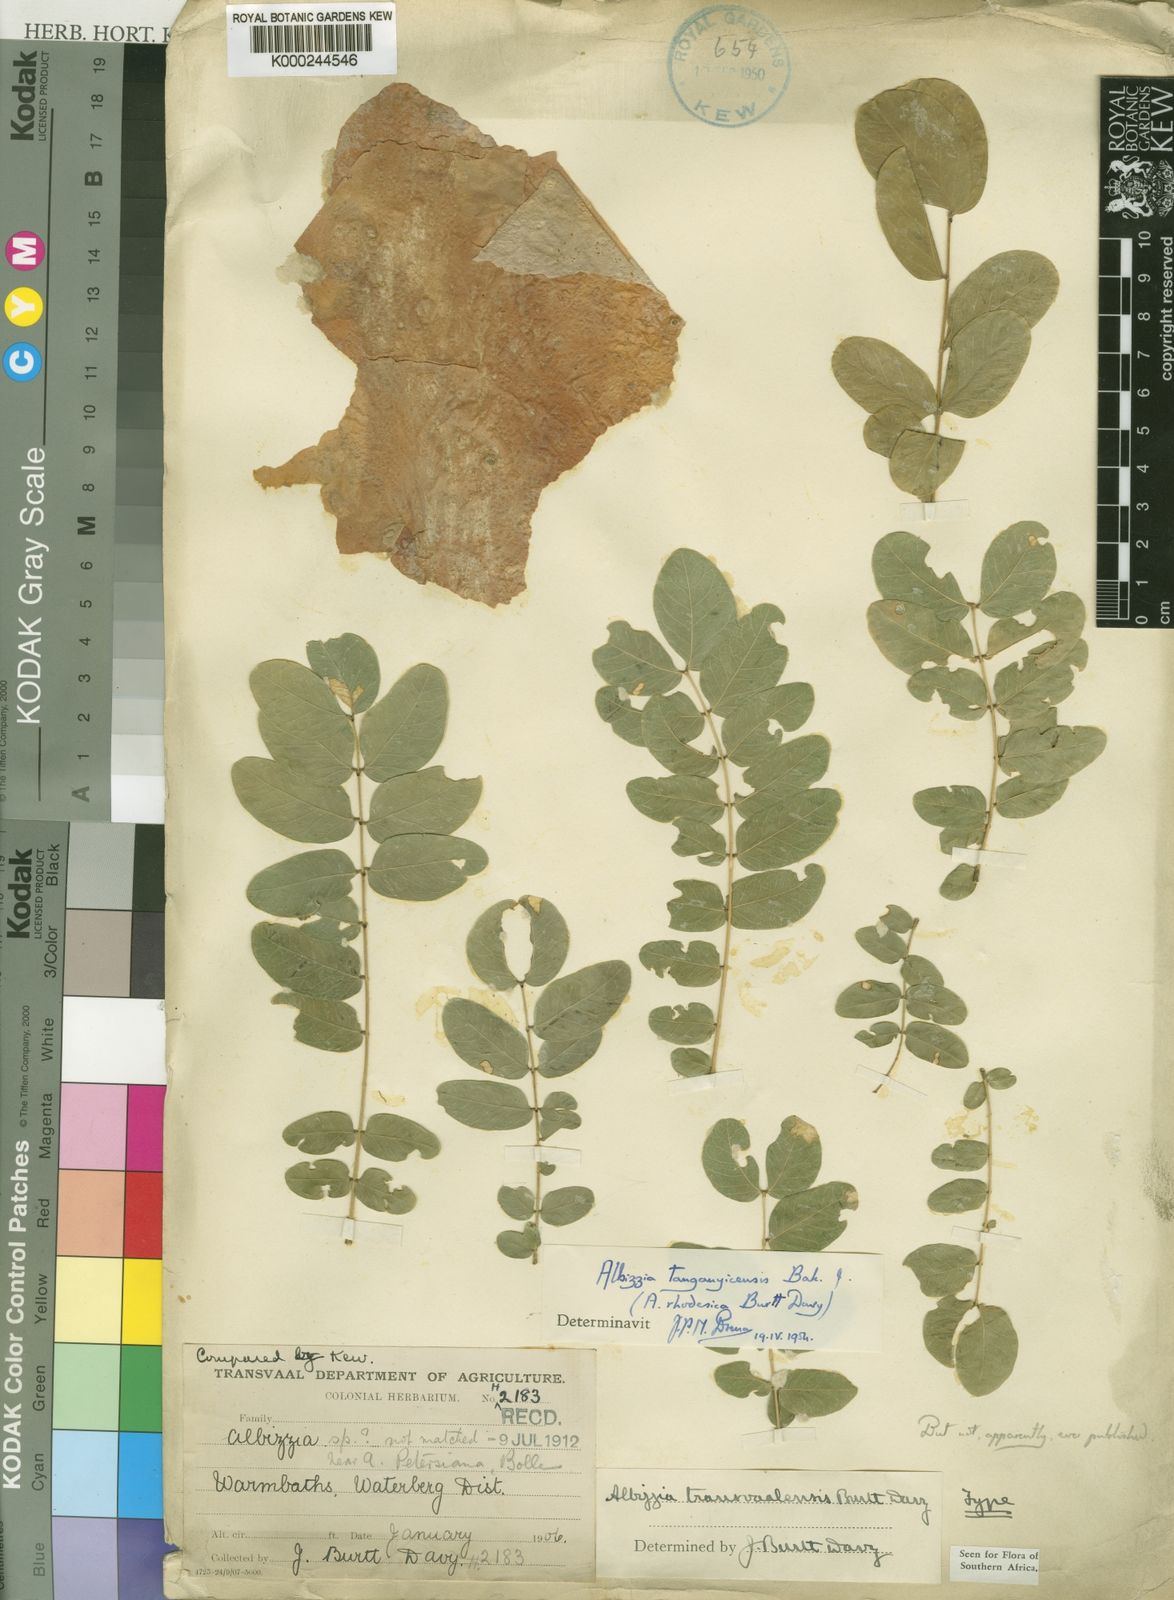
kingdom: Plantae
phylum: Tracheophyta
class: Magnoliopsida
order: Fabales
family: Fabaceae
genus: Albizia
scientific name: Albizia tanganyicensis
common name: Paperbark false thorn
